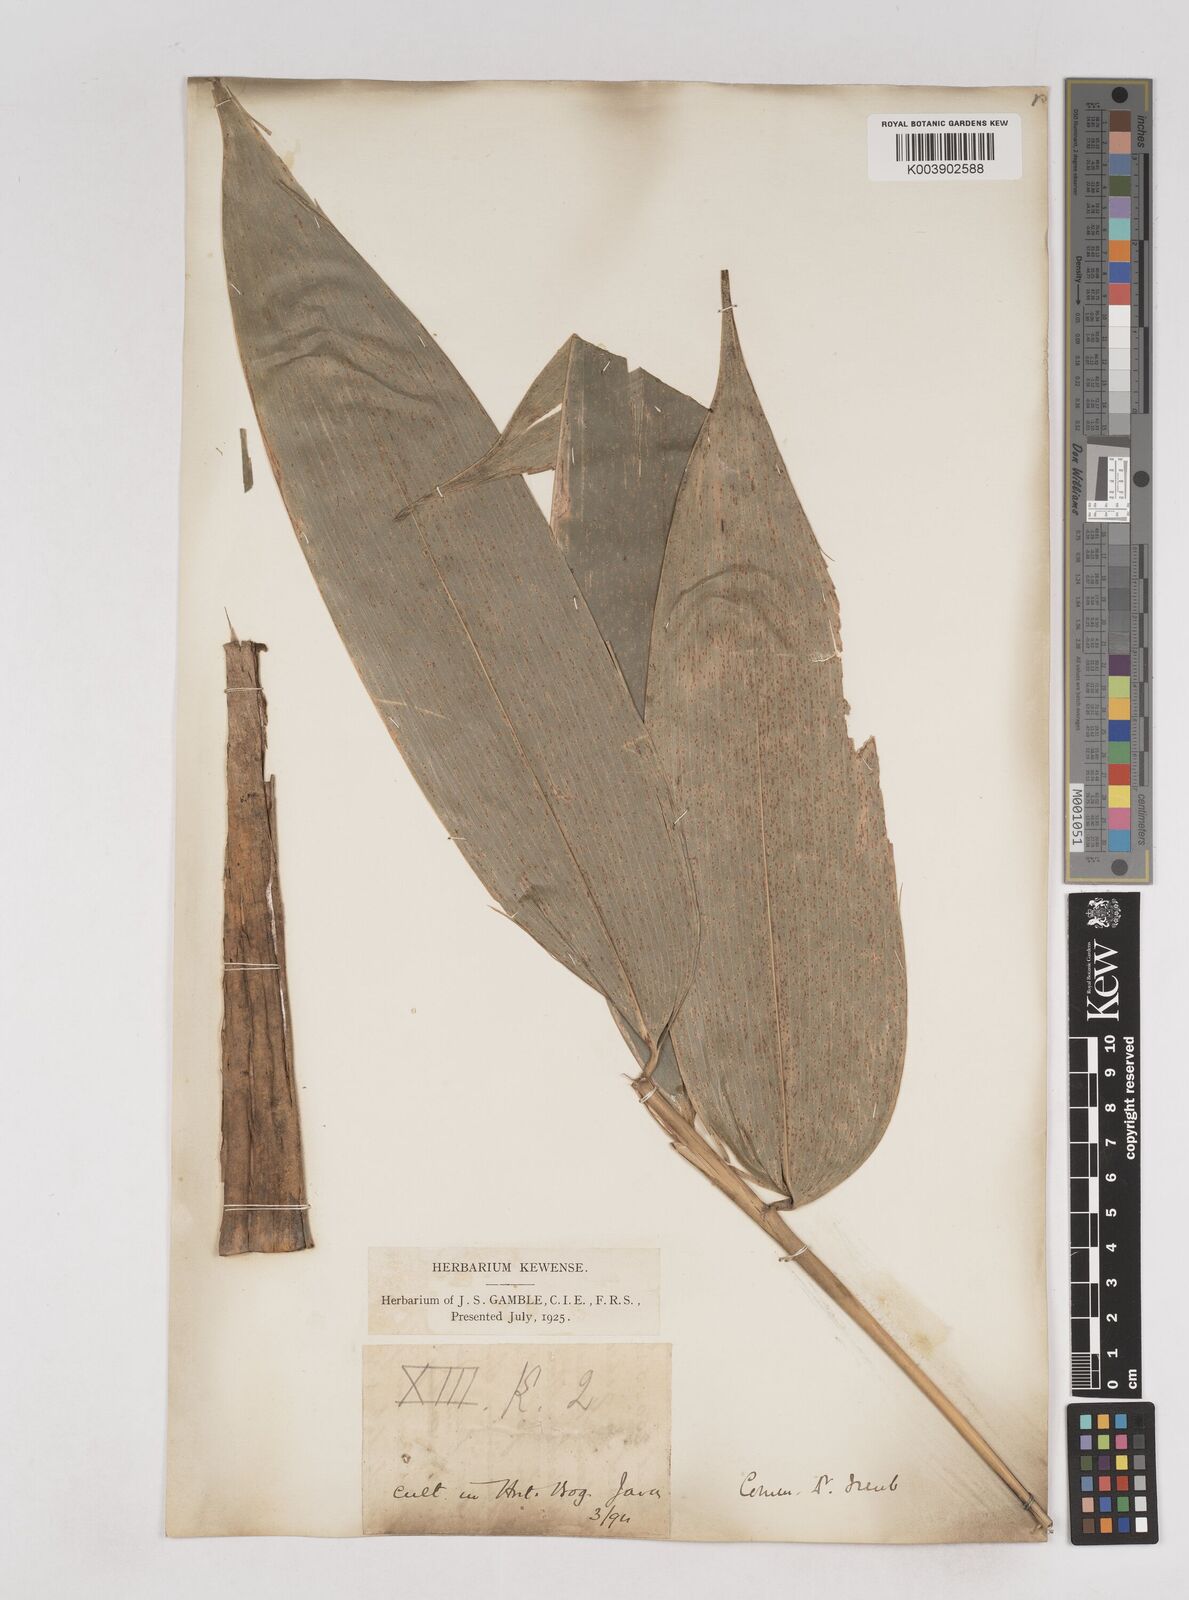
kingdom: Plantae
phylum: Tracheophyta
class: Liliopsida
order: Poales
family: Poaceae
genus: Schizostachyum
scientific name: Schizostachyum
